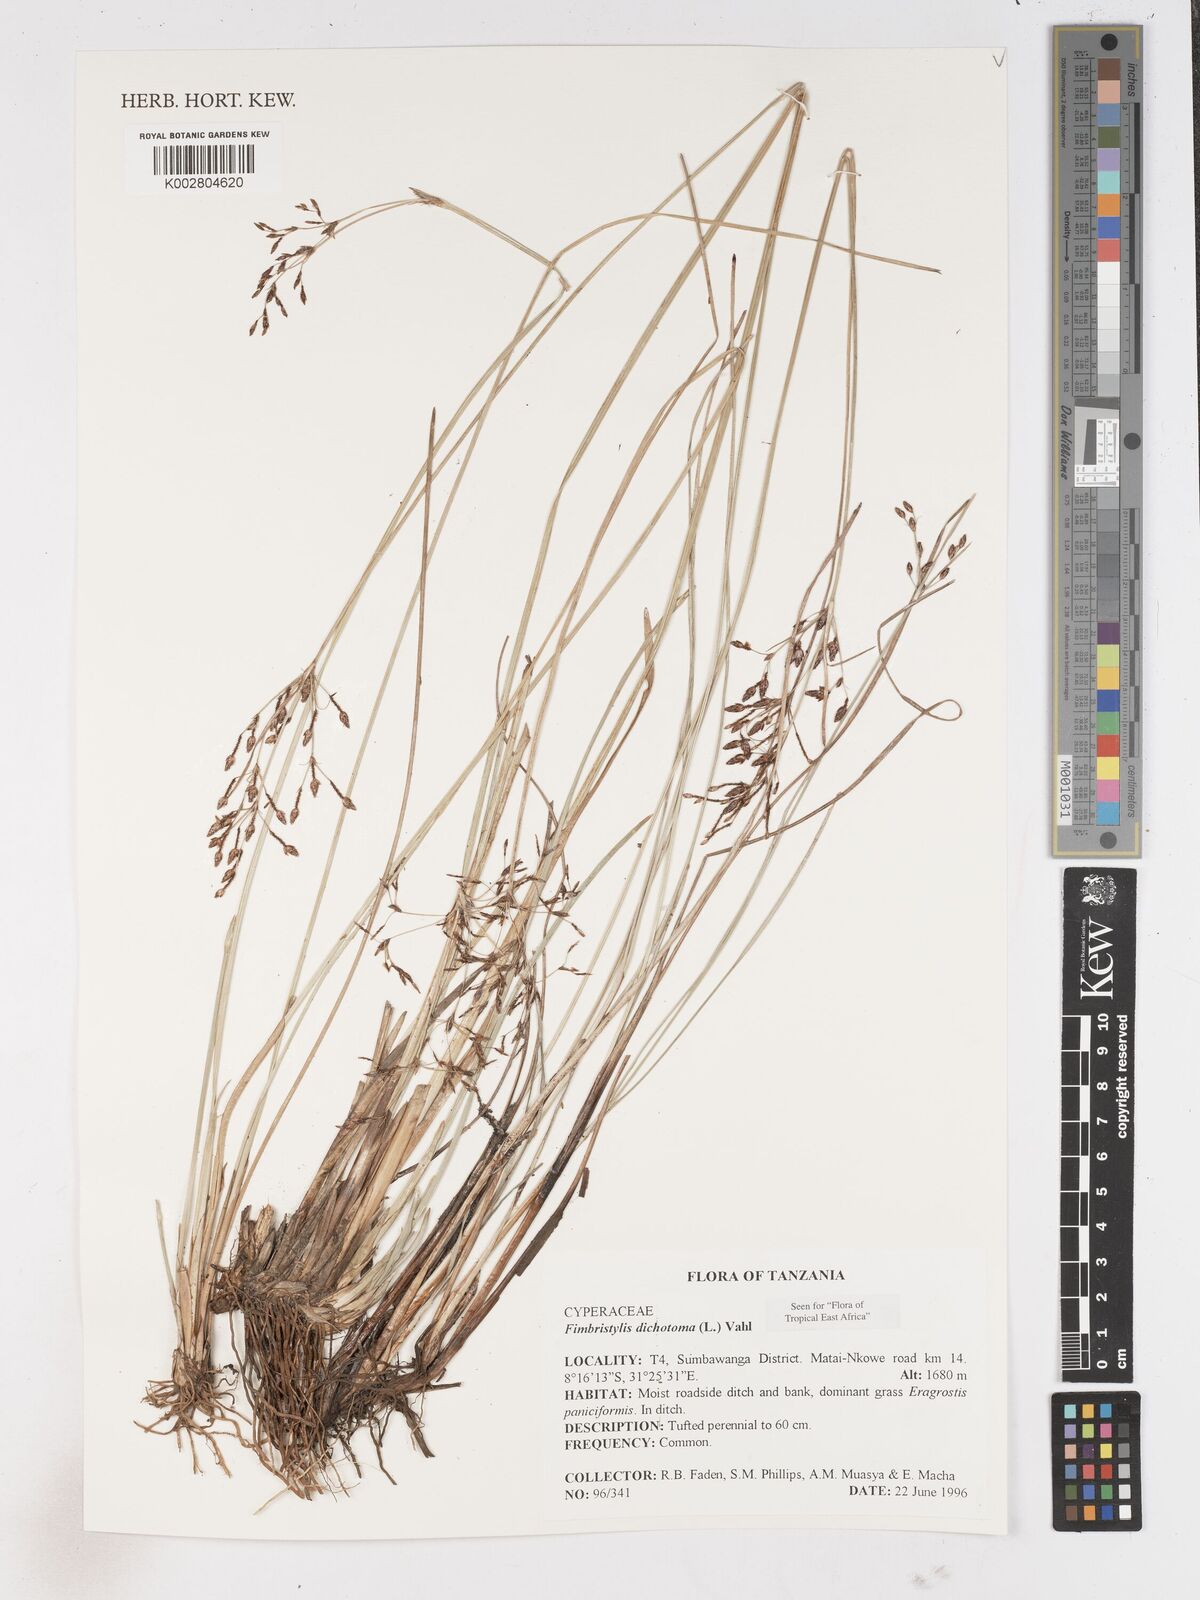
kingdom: Plantae
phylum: Tracheophyta
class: Liliopsida
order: Poales
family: Cyperaceae
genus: Fimbristylis
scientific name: Fimbristylis dichotoma
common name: Forked fimbry
